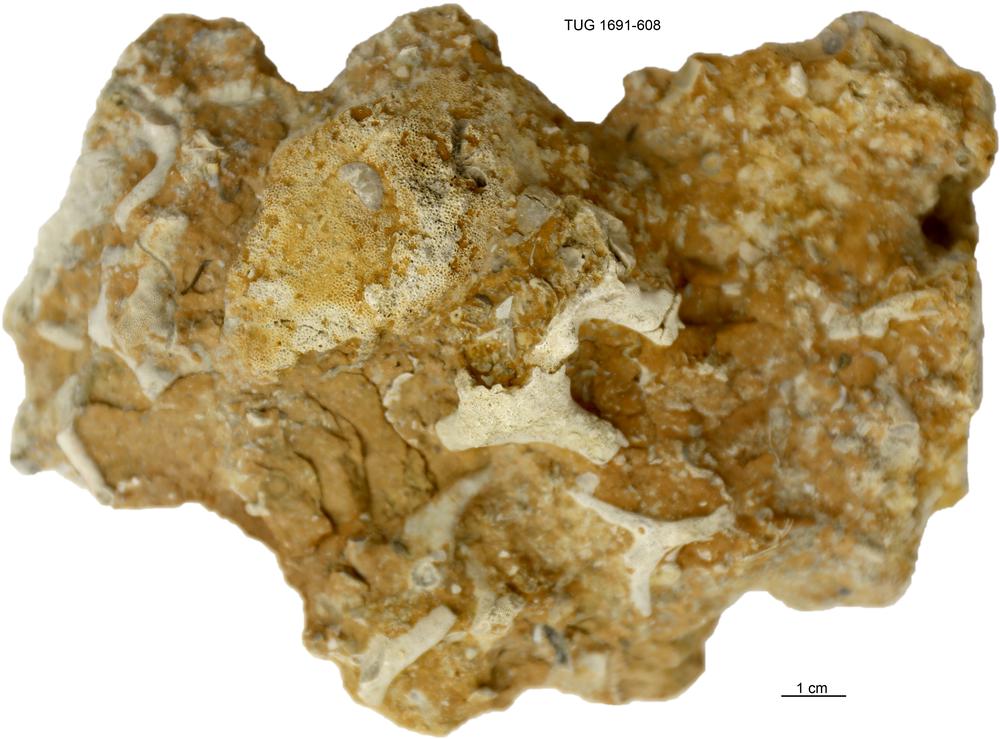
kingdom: Animalia
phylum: Bryozoa
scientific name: Bryozoa
